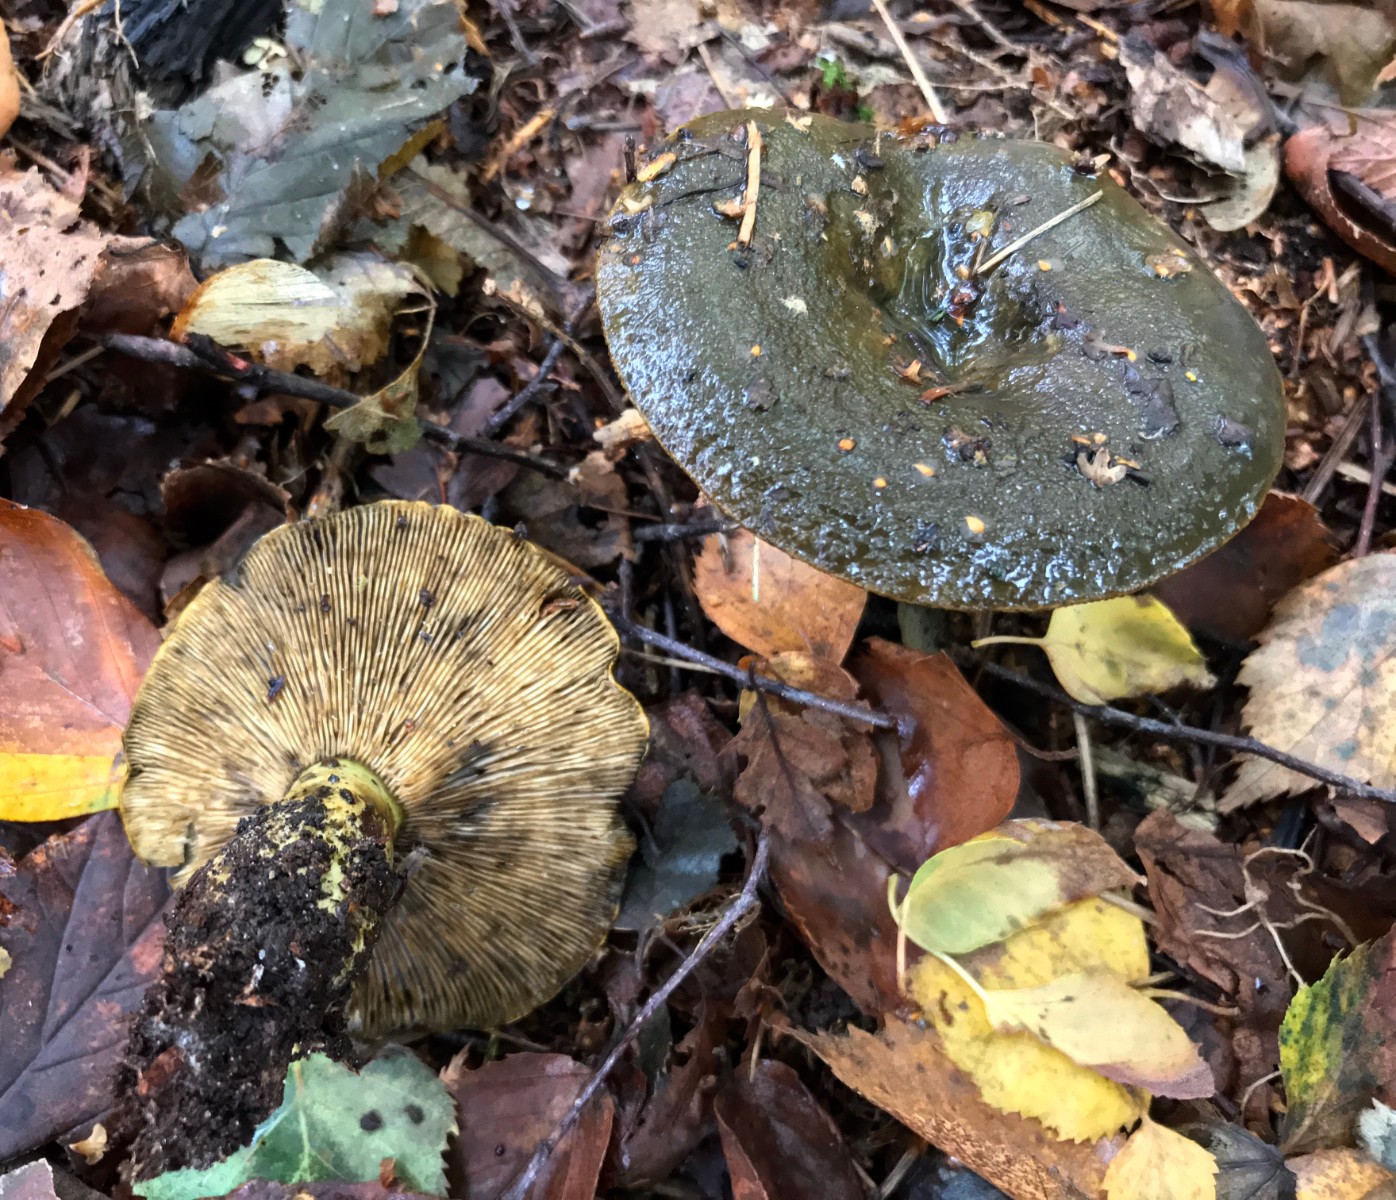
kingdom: Fungi
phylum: Basidiomycota
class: Agaricomycetes
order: Russulales
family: Russulaceae
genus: Lactarius
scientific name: Lactarius necator
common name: manddraber-mælkehat
